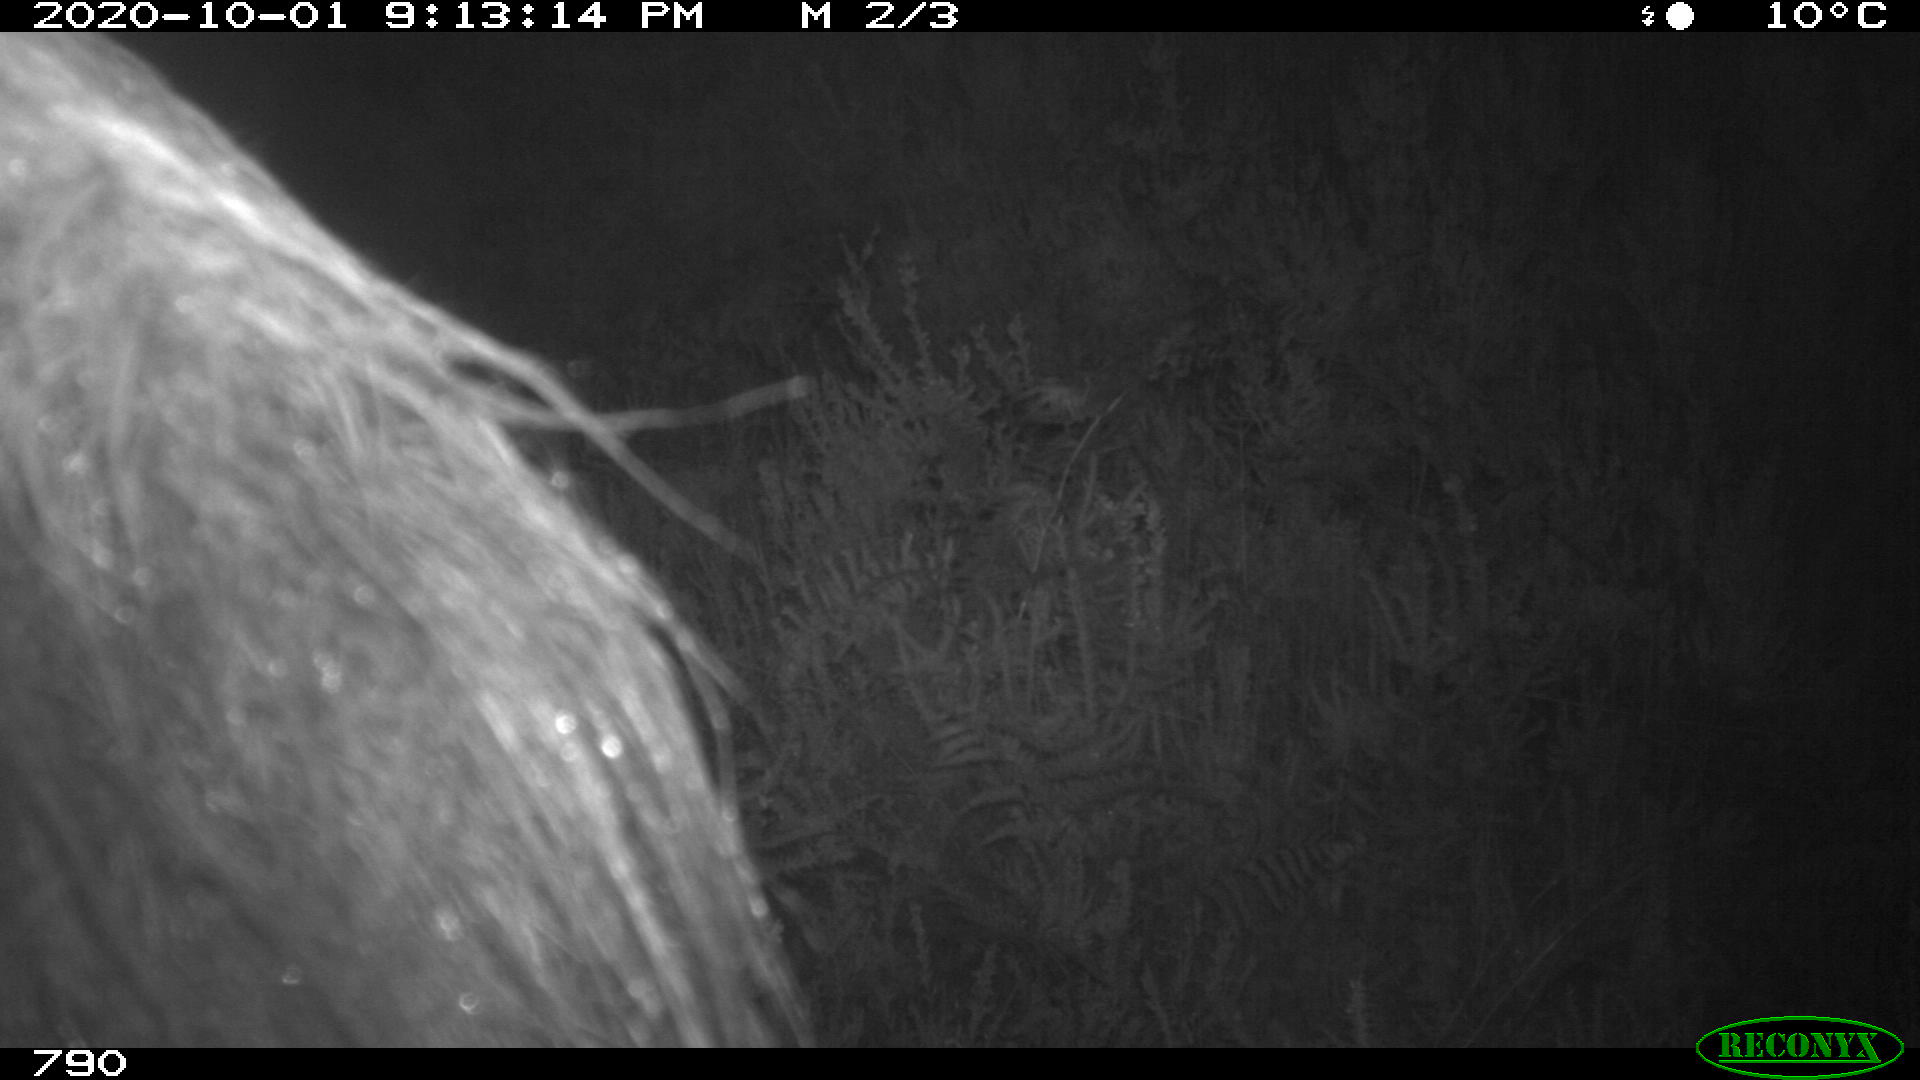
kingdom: Animalia
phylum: Chordata
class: Mammalia
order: Perissodactyla
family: Equidae
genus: Equus
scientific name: Equus caballus
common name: Horse
